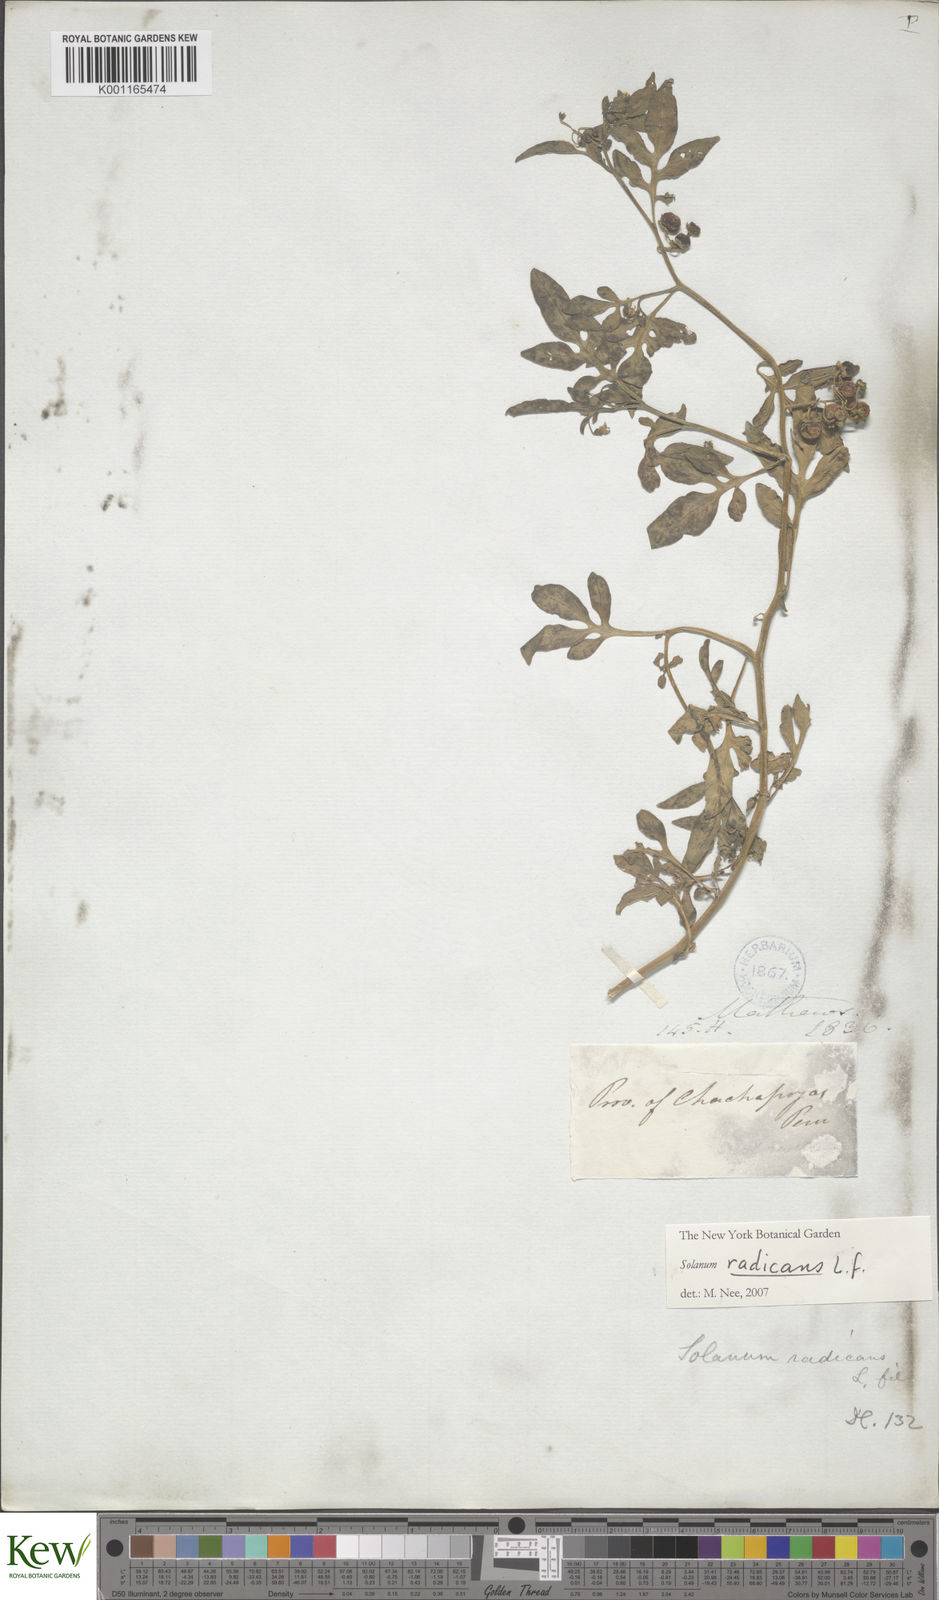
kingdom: Plantae
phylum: Tracheophyta
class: Magnoliopsida
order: Solanales
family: Solanaceae
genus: Solanum
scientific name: Solanum radicans
